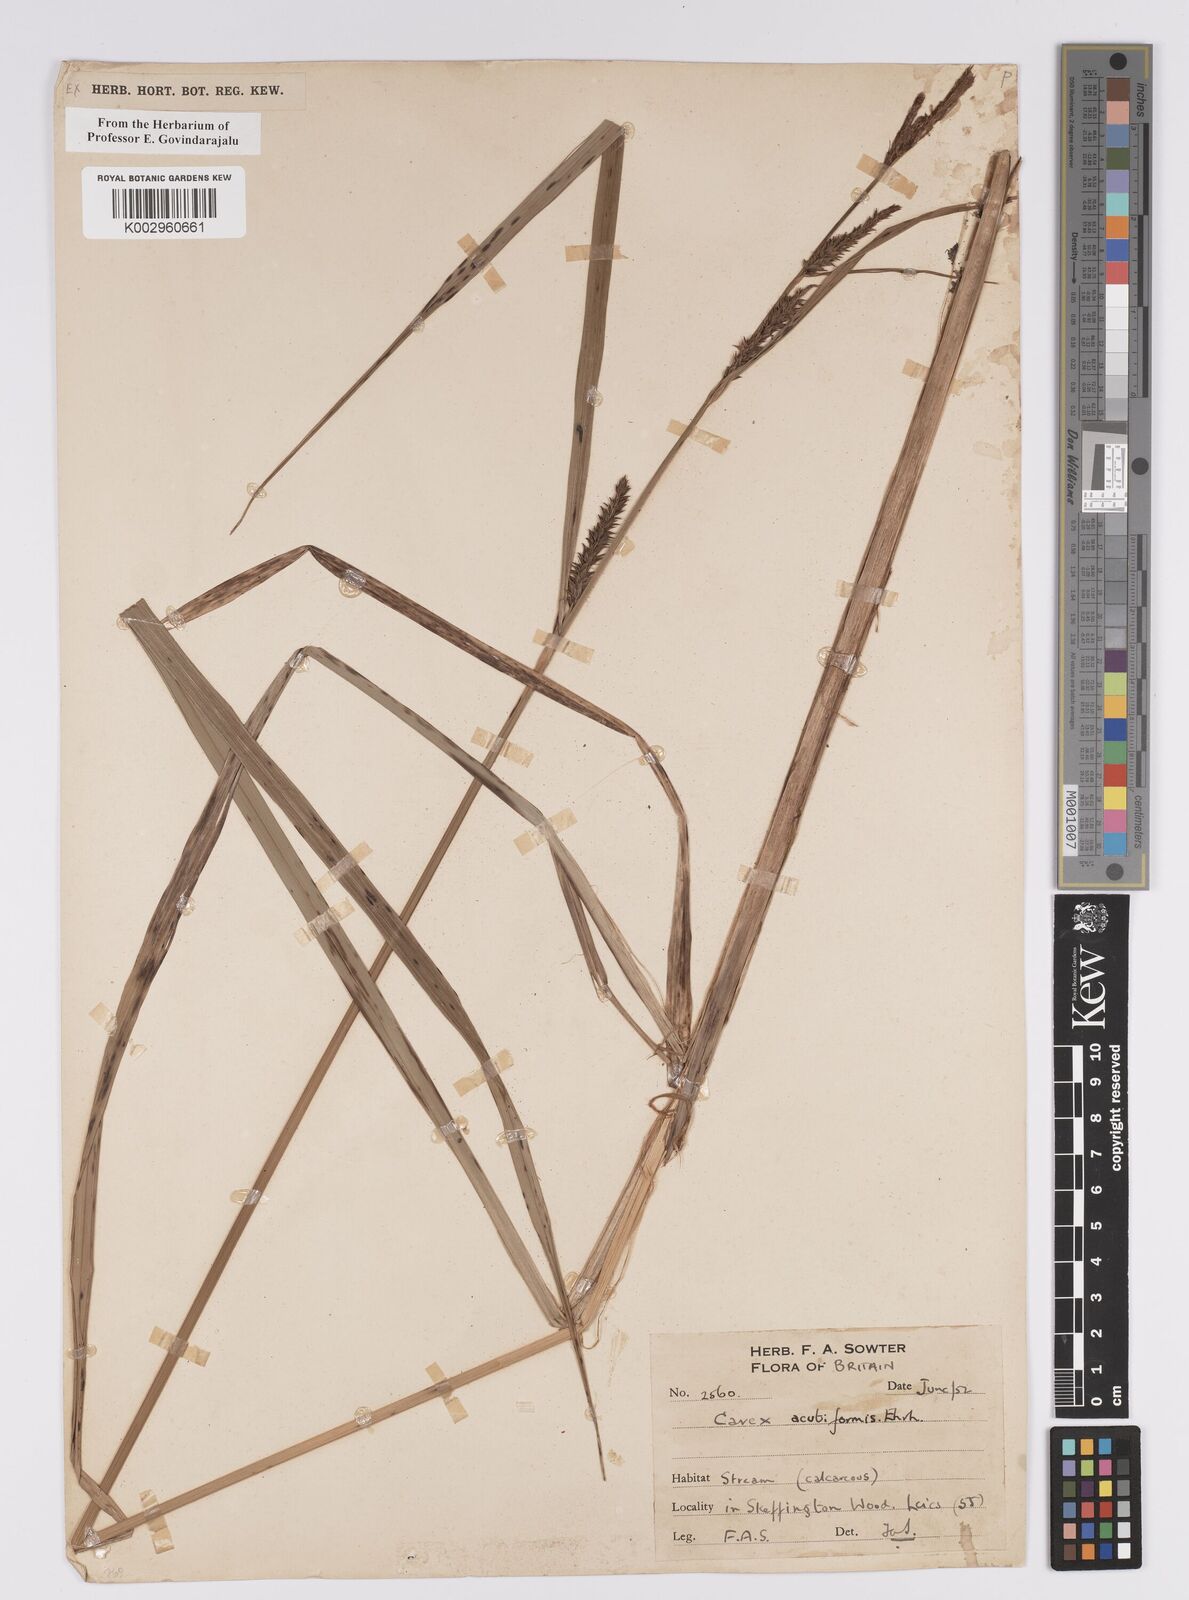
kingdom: Plantae
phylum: Tracheophyta
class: Liliopsida
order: Poales
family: Cyperaceae
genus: Carex
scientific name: Carex acutiformis
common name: Lesser pond-sedge
